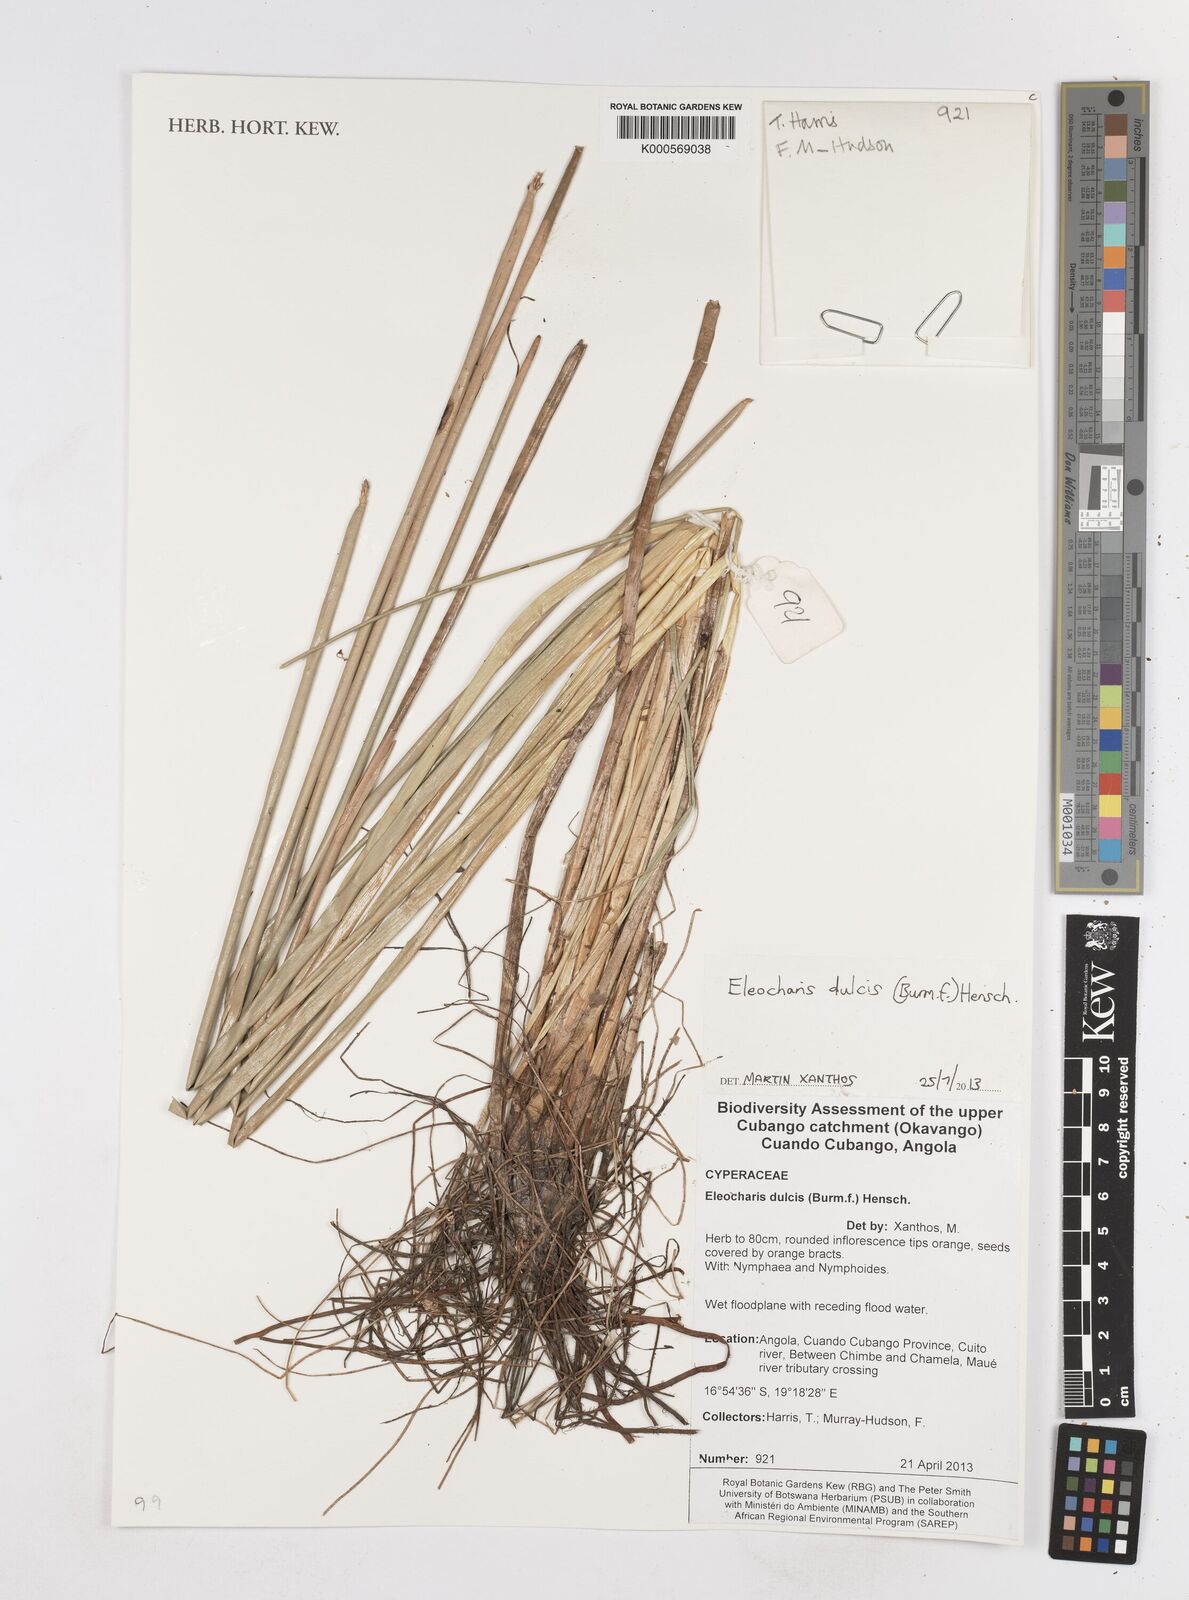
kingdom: Plantae
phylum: Tracheophyta
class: Liliopsida
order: Poales
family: Cyperaceae
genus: Eleocharis
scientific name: Eleocharis dulcis
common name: Chinese water chestnut
